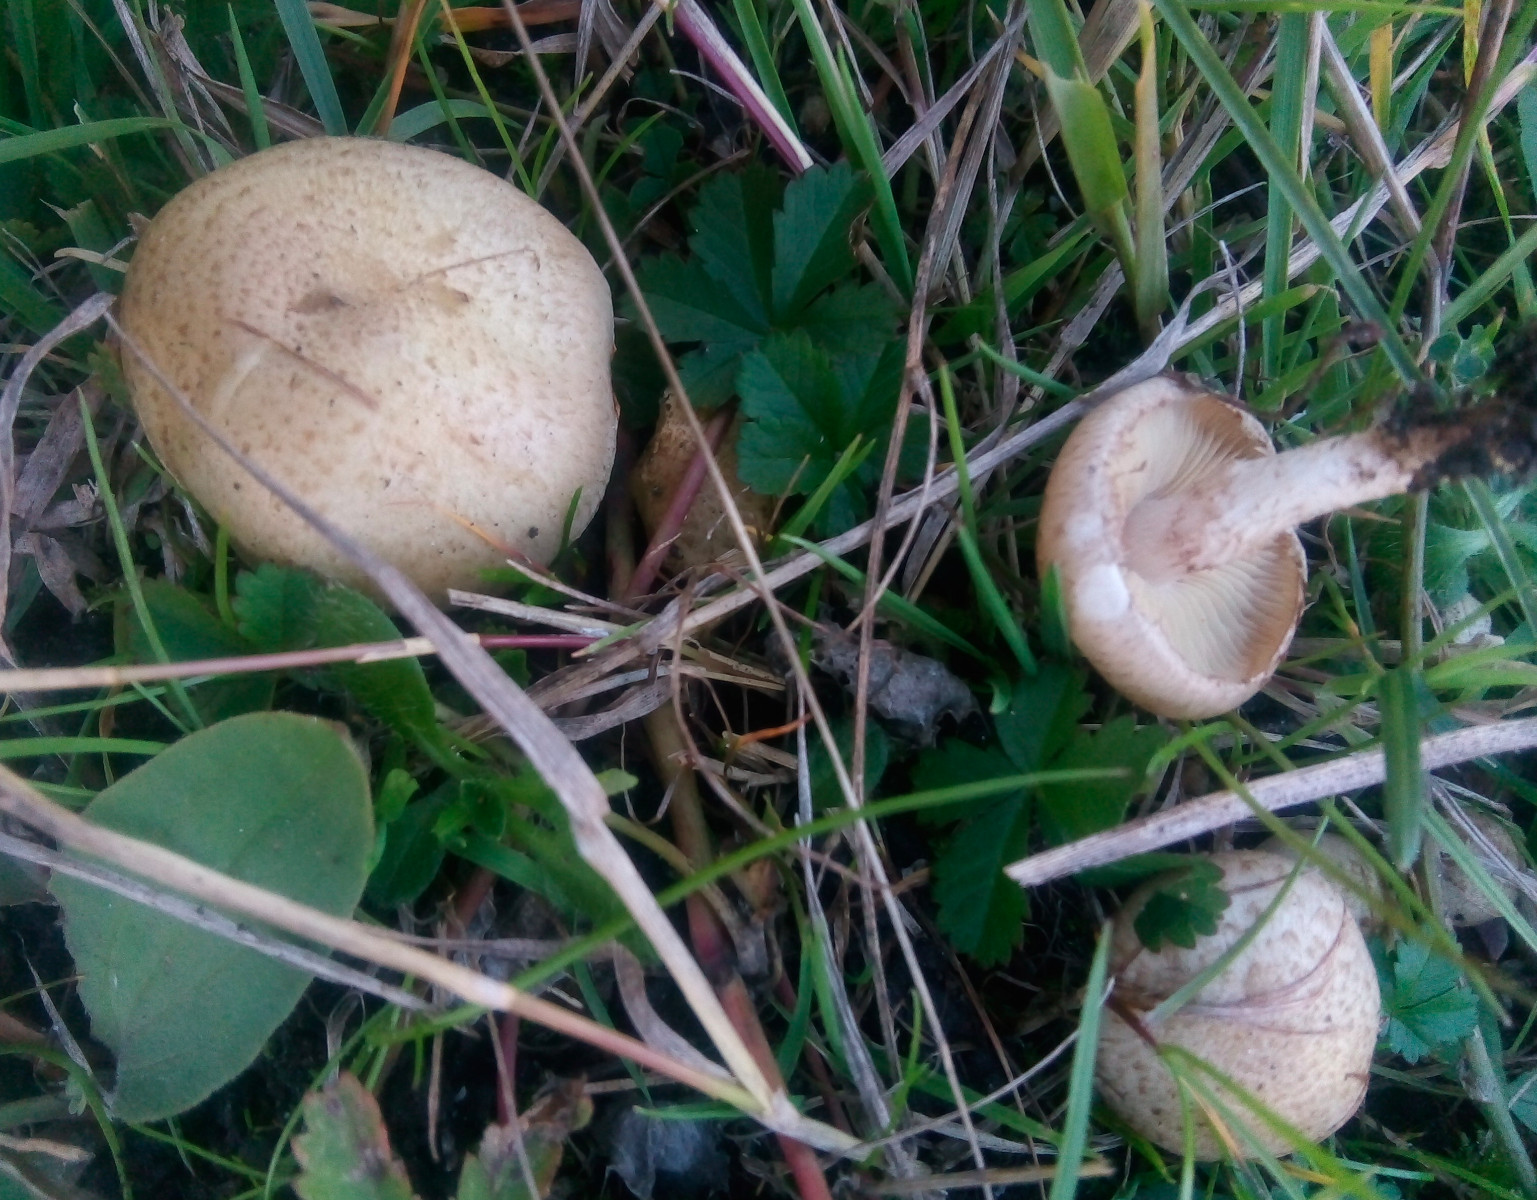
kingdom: Fungi
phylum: Basidiomycota
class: Agaricomycetes
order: Agaricales
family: Strophariaceae
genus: Pholiota
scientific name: Pholiota gummosa
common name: grøngul skælhat
